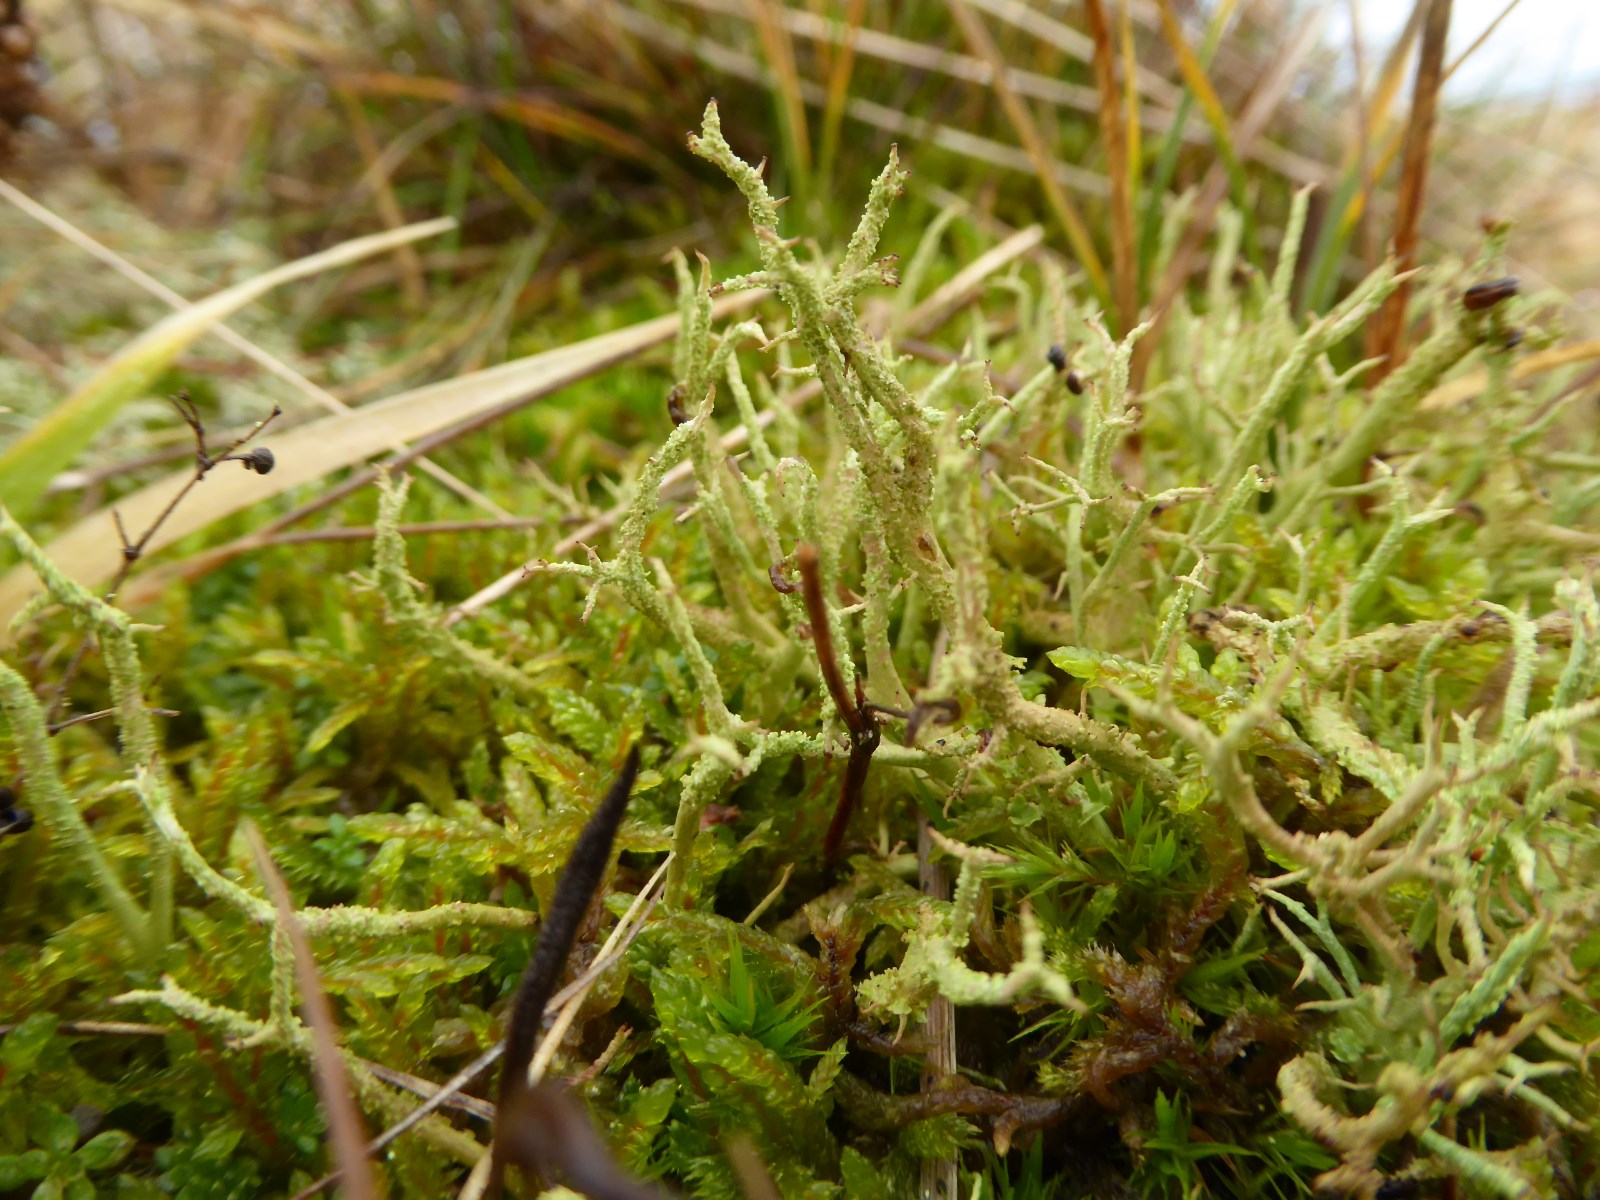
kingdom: Fungi
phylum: Ascomycota
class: Lecanoromycetes
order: Lecanorales
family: Cladoniaceae
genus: Cladonia
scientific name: Cladonia scabriuscula
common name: ru bægerlav
